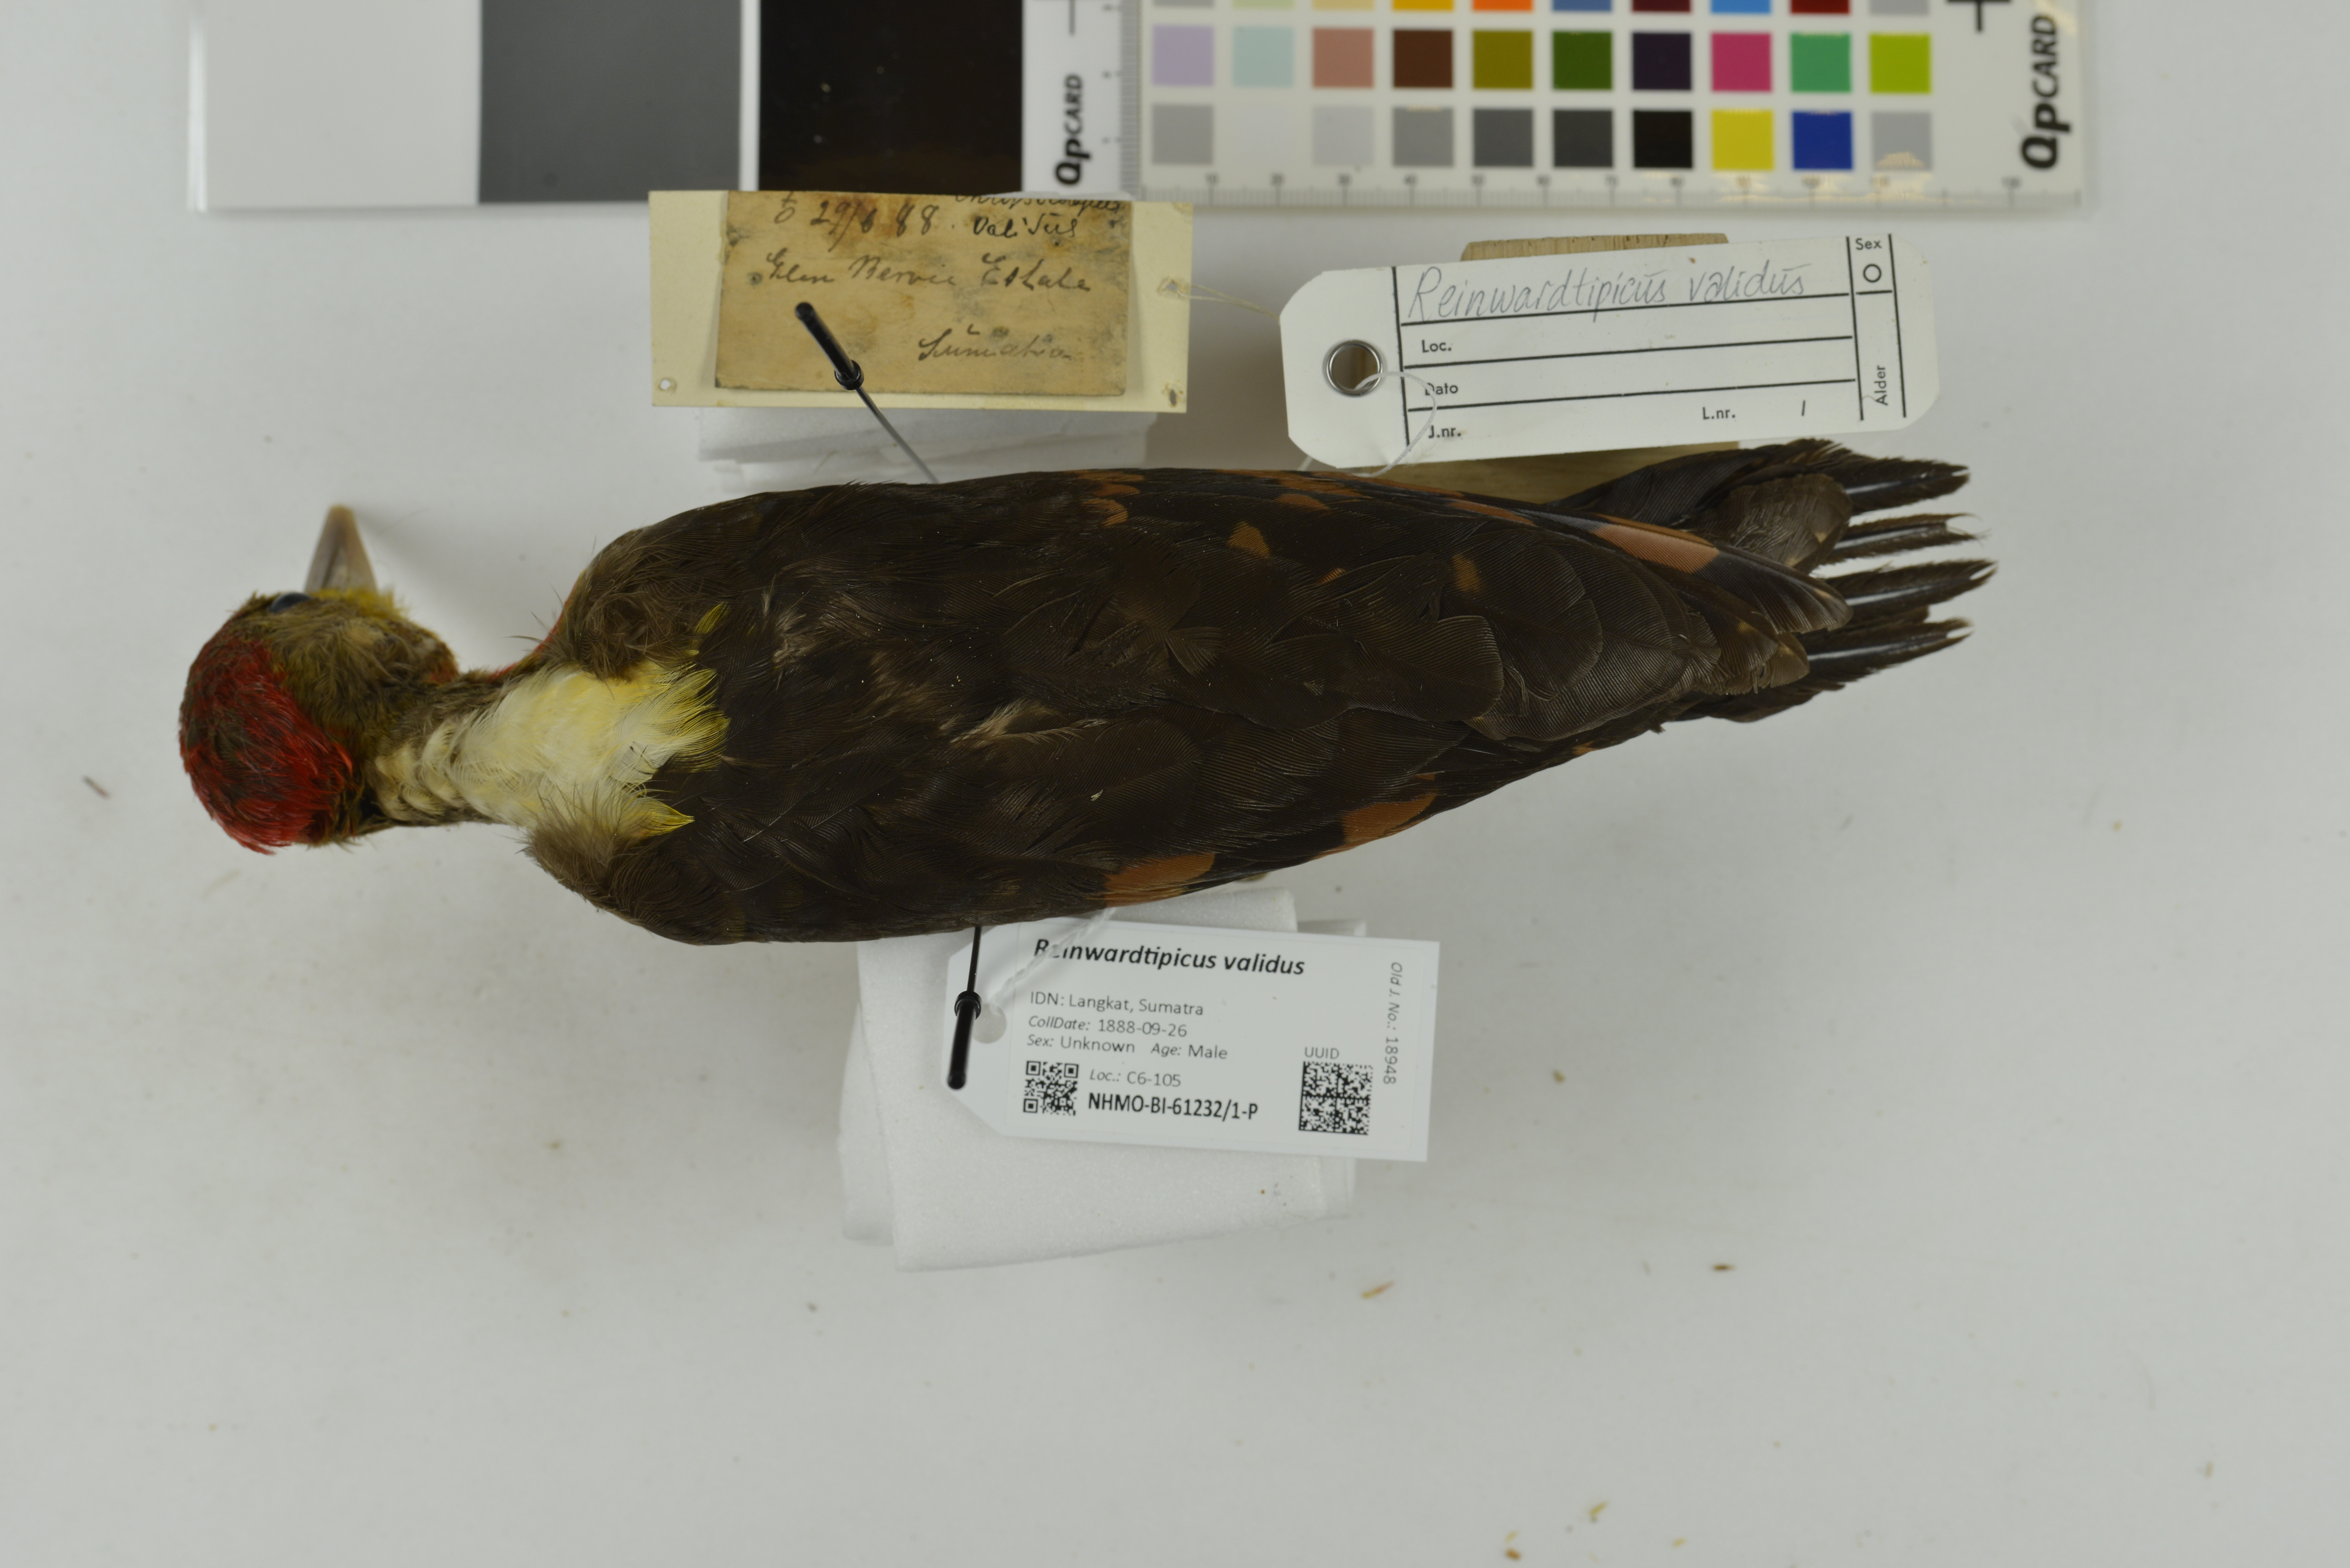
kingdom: Animalia
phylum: Chordata
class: Aves
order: Piciformes
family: Picidae
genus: Reinwardtipicus
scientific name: Reinwardtipicus validus
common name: Orange-backed woodpecker
